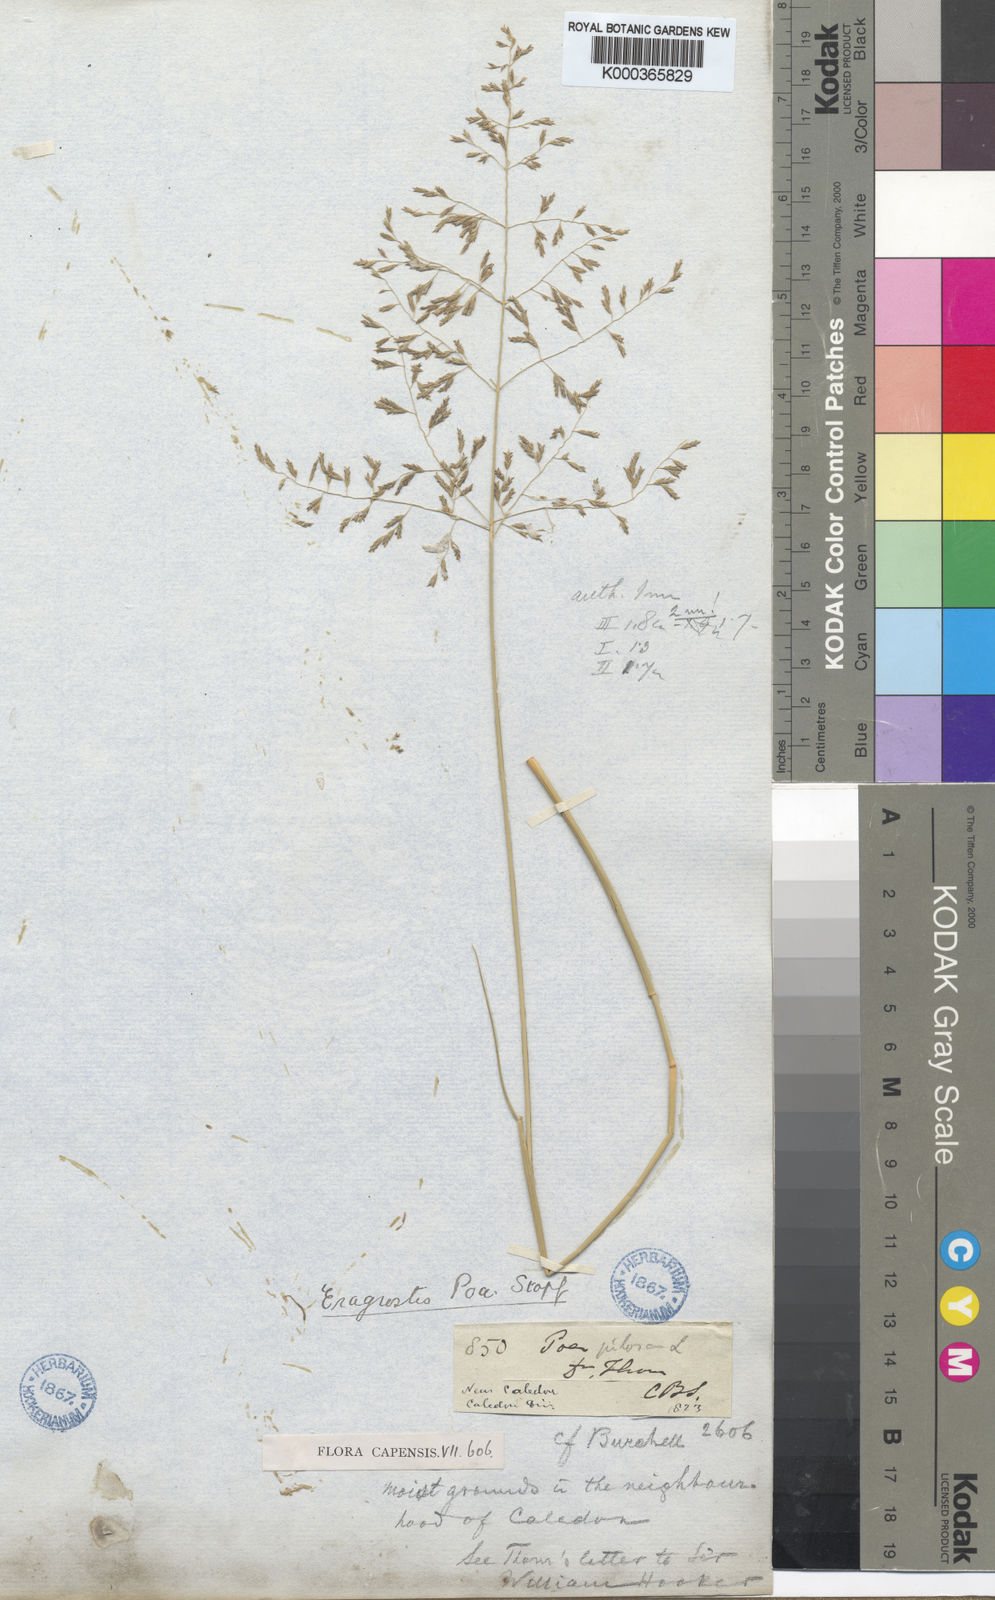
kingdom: Plantae
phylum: Tracheophyta
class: Liliopsida
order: Poales
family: Poaceae
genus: Eragrostis
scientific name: Eragrostis curvula
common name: African love-grass
